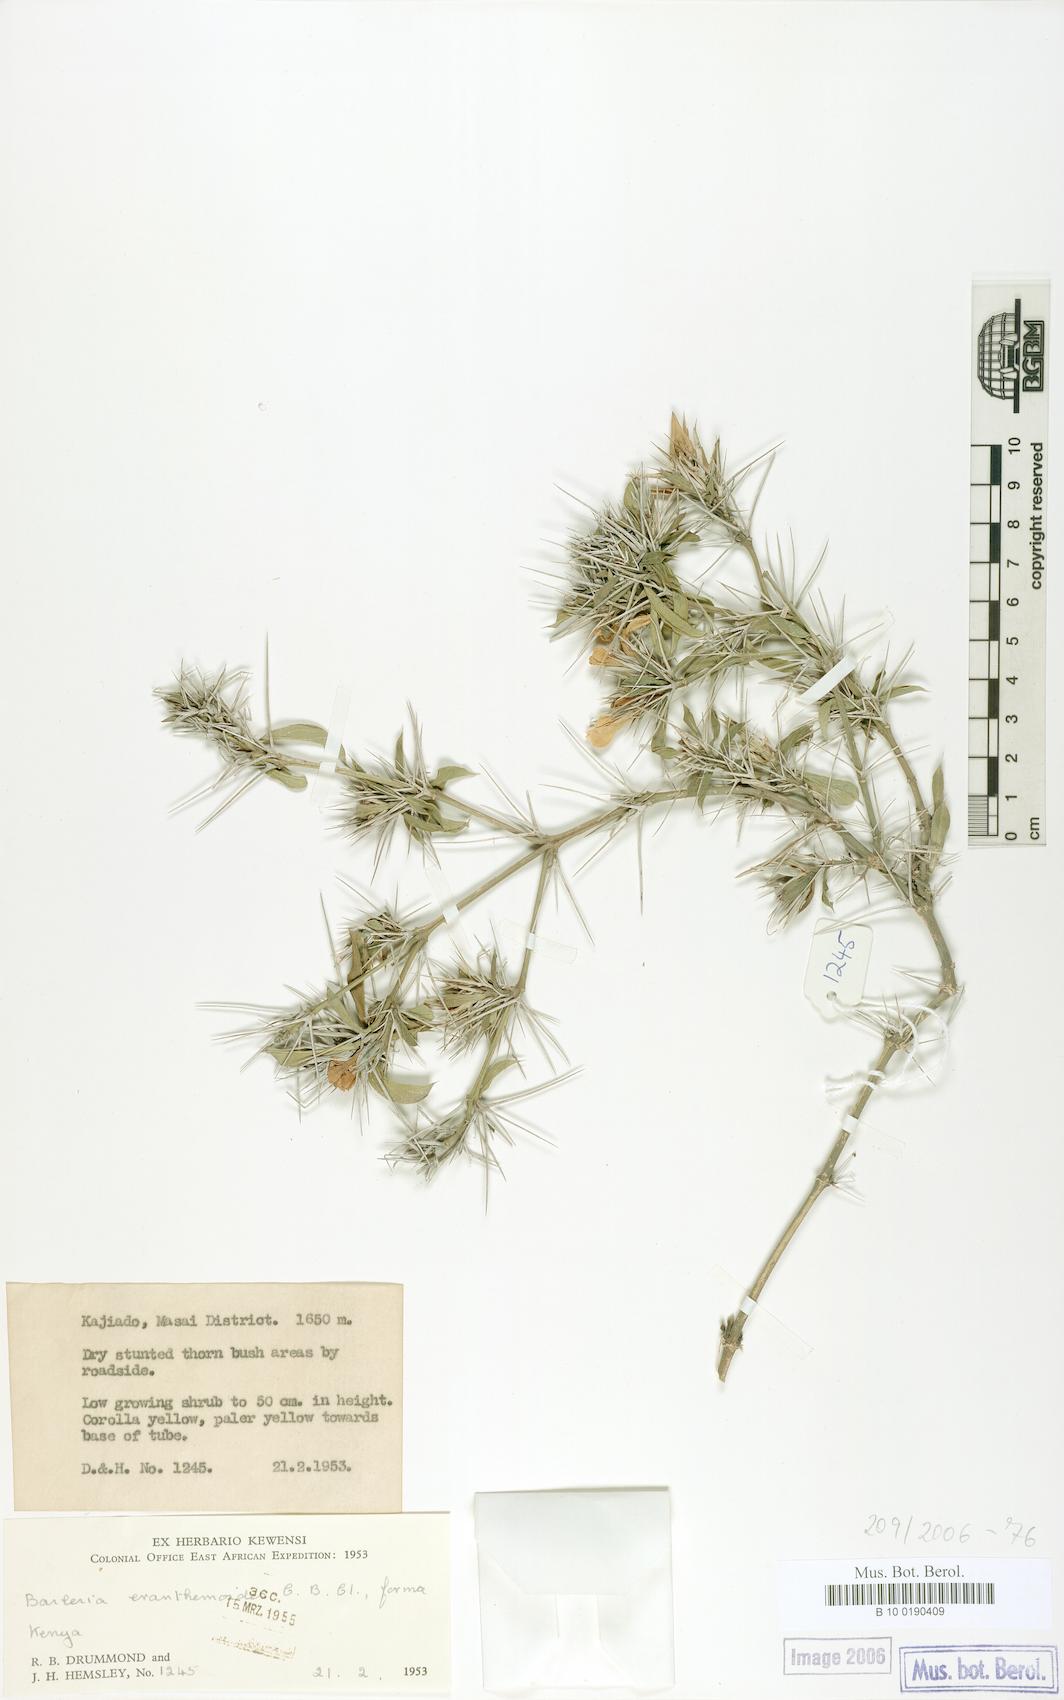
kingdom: Plantae
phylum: Tracheophyta
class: Magnoliopsida
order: Lamiales
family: Acanthaceae
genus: Barleria
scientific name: Barleria eranthemoides
